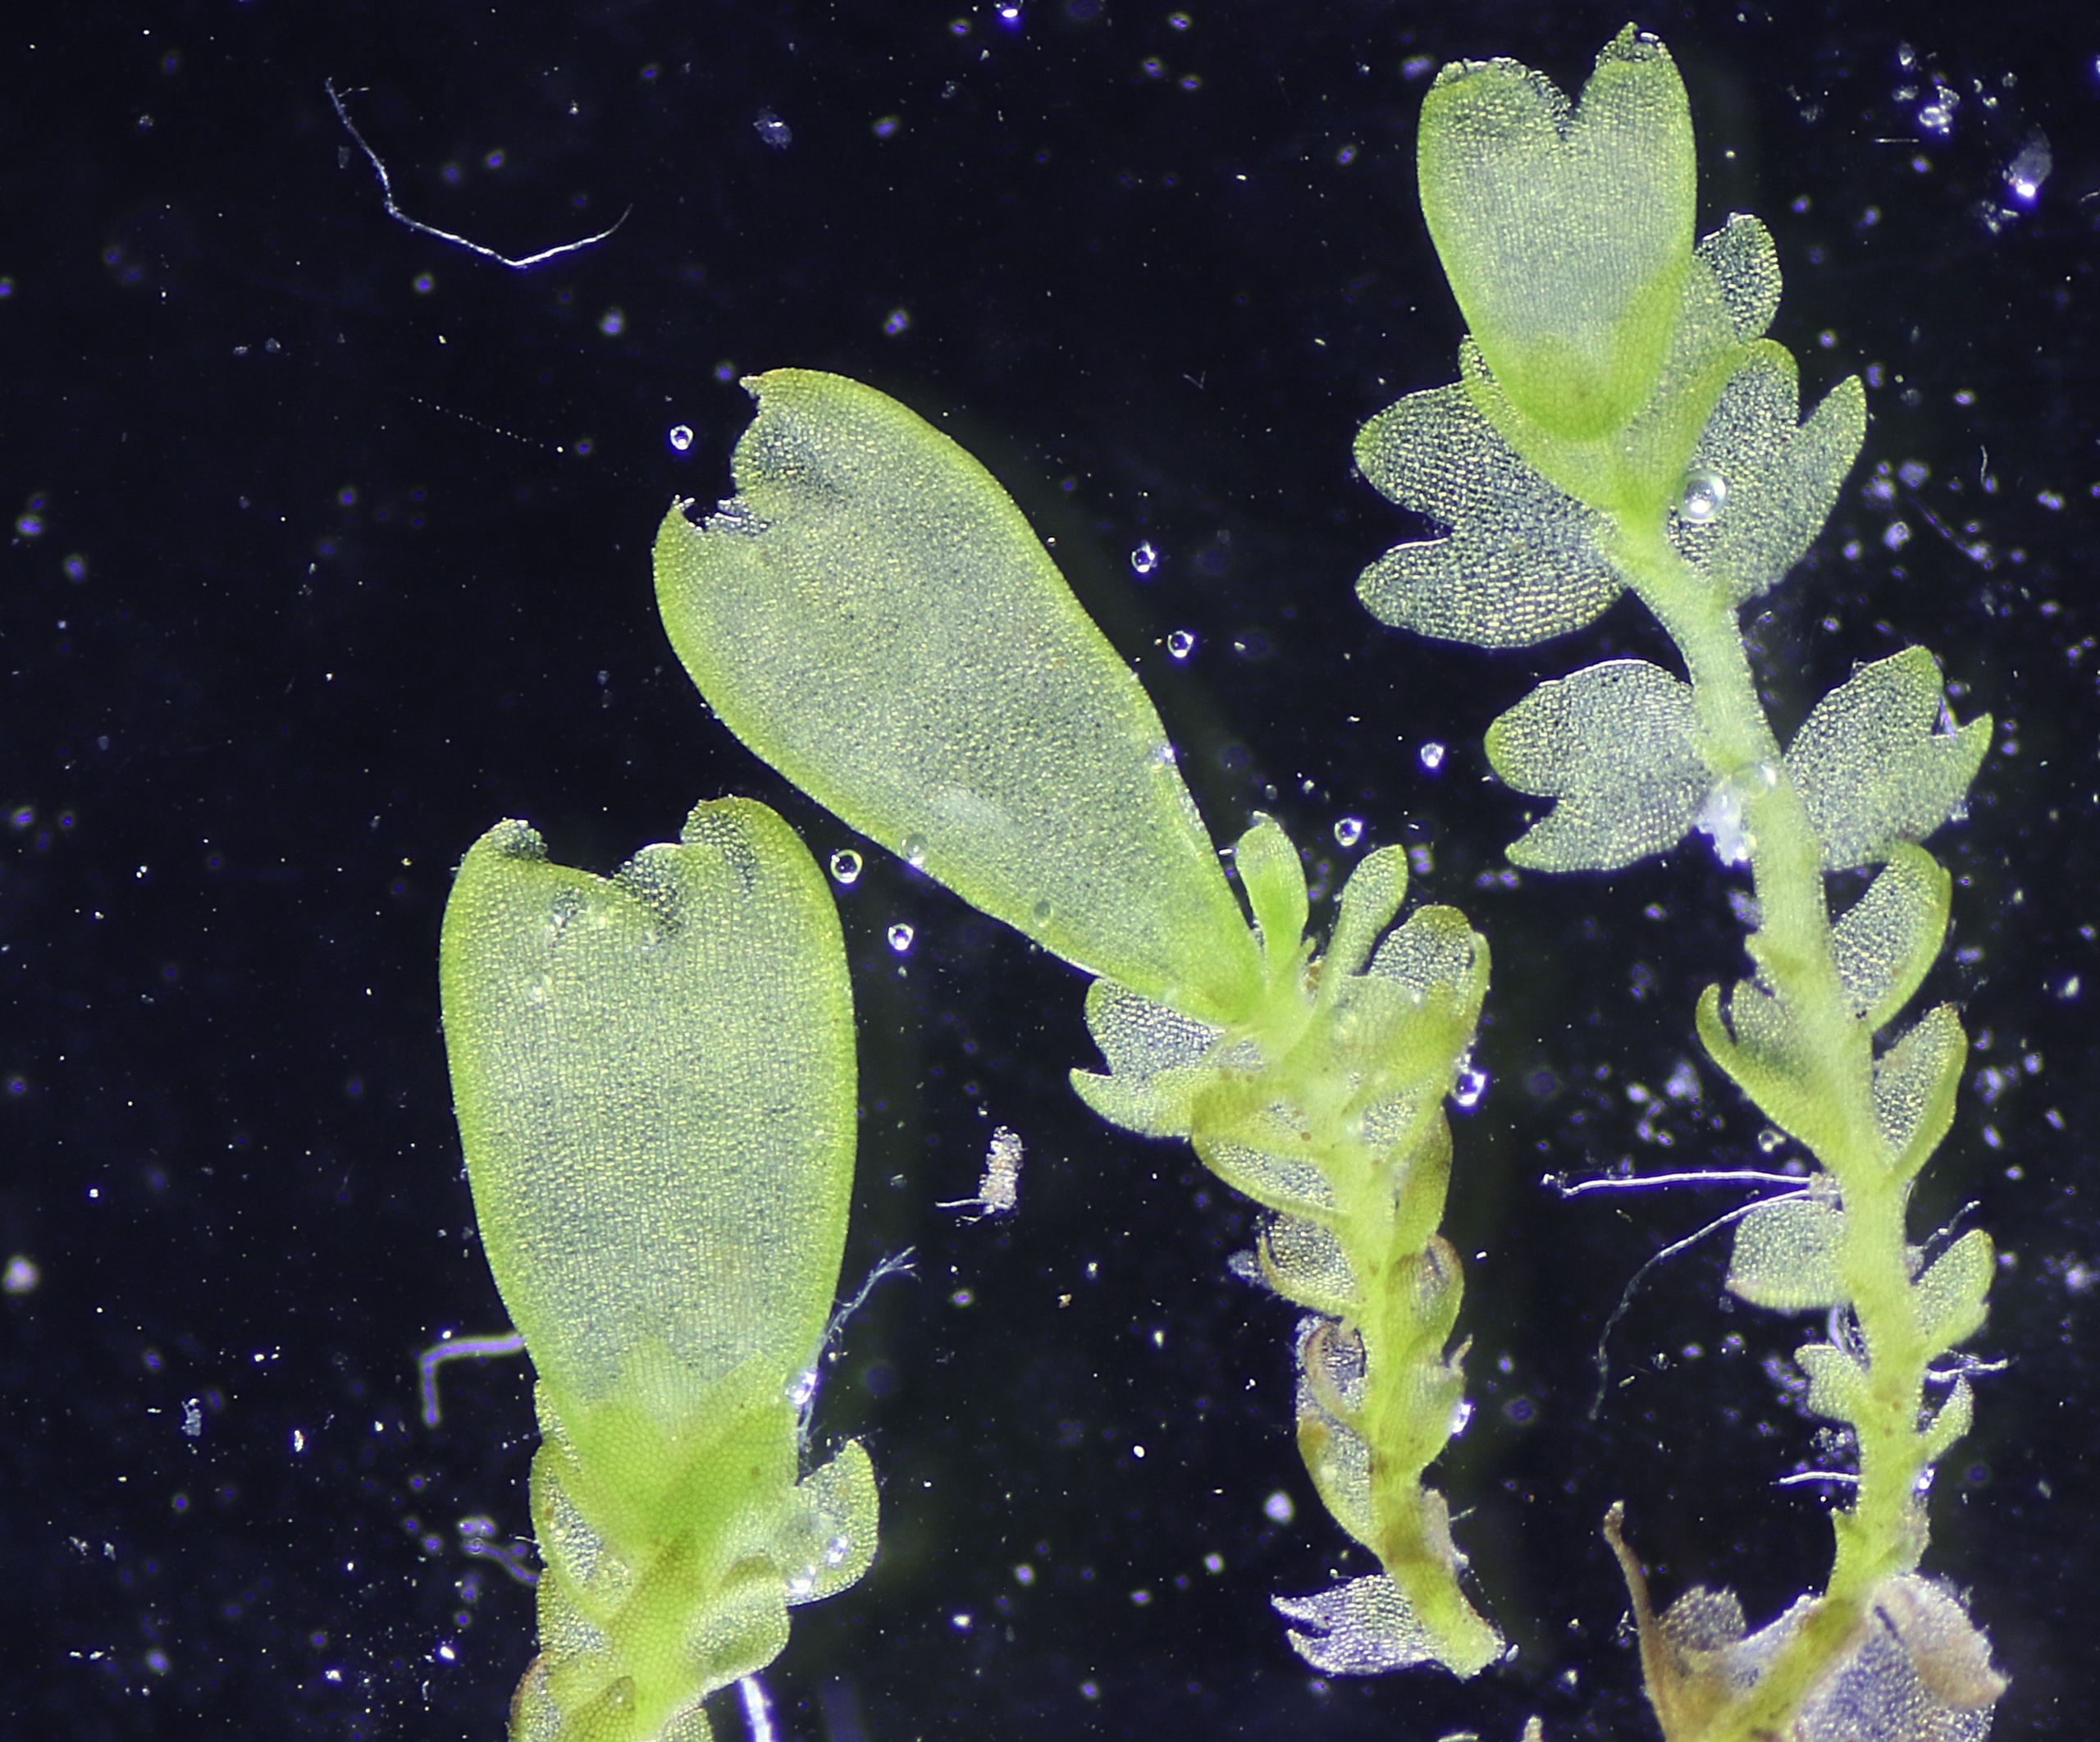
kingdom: Plantae
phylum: Marchantiophyta
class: Jungermanniopsida
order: Jungermanniales
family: Anastrophyllaceae
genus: Gymnocolea
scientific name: Gymnocolea inflata
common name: Opblæst blæremos
